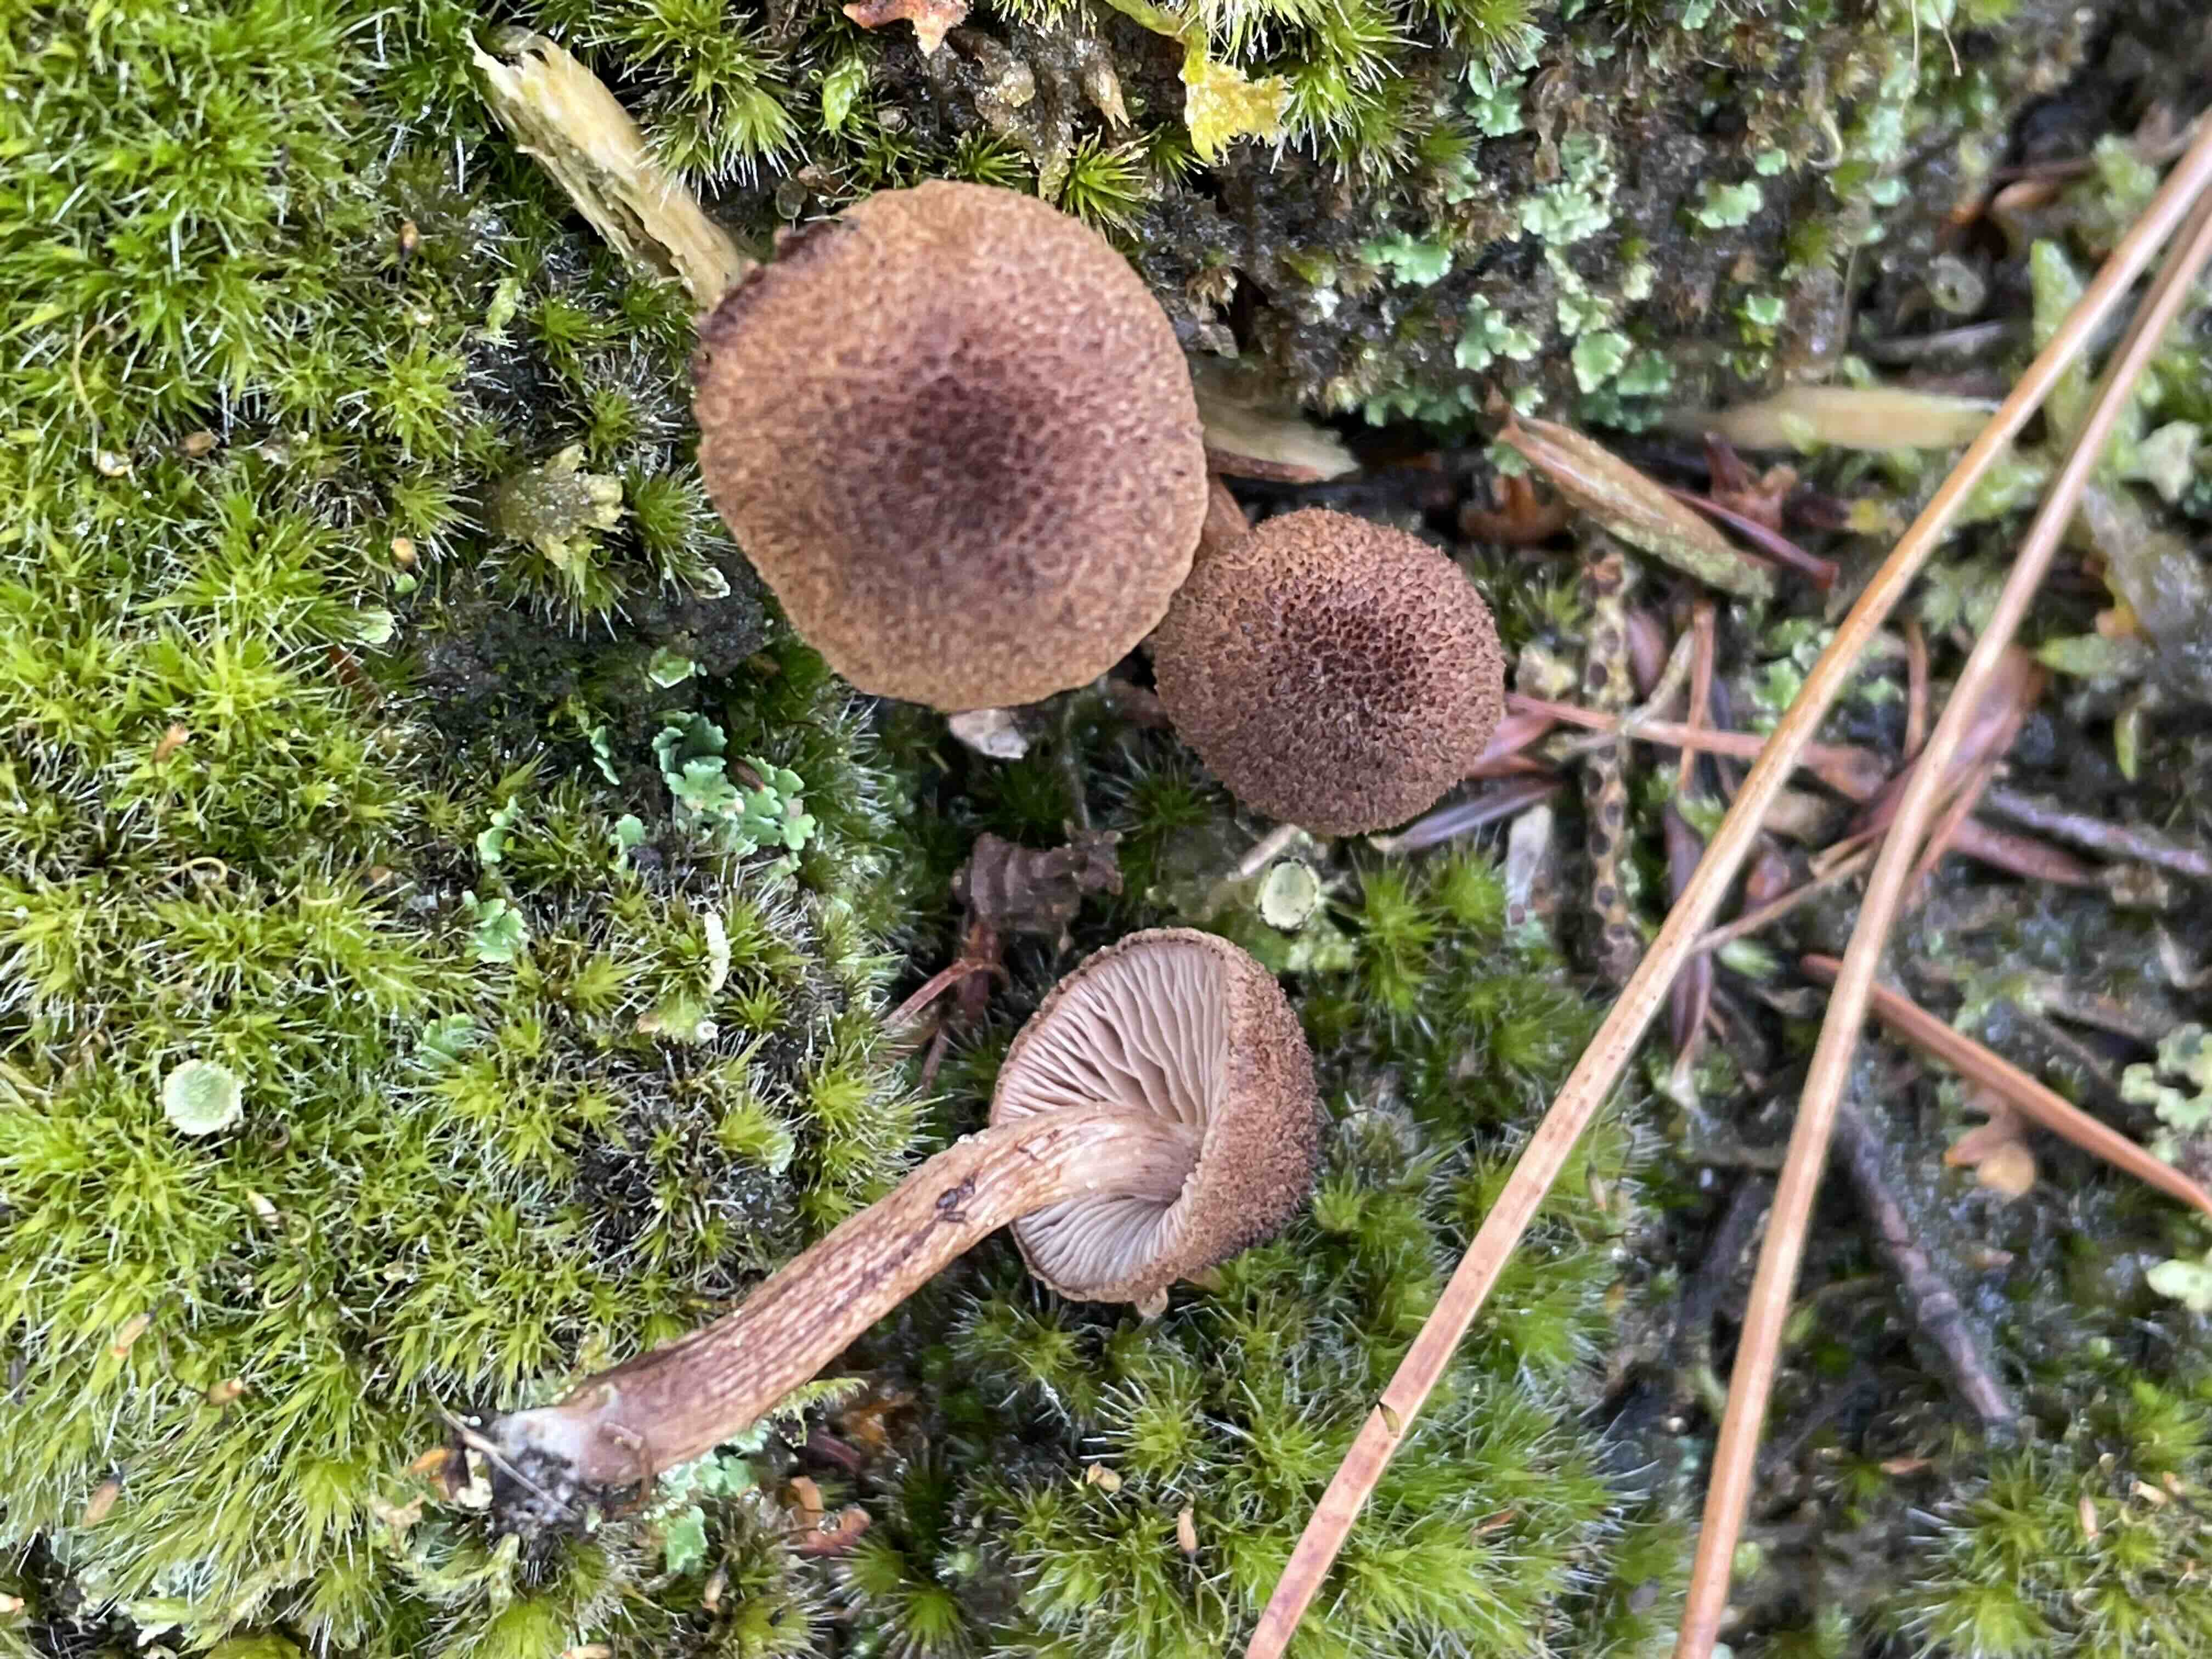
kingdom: Fungi
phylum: Basidiomycota
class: Agaricomycetes
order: Agaricales
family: Inocybaceae
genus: Inocybe
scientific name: Inocybe
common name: trævlhat
